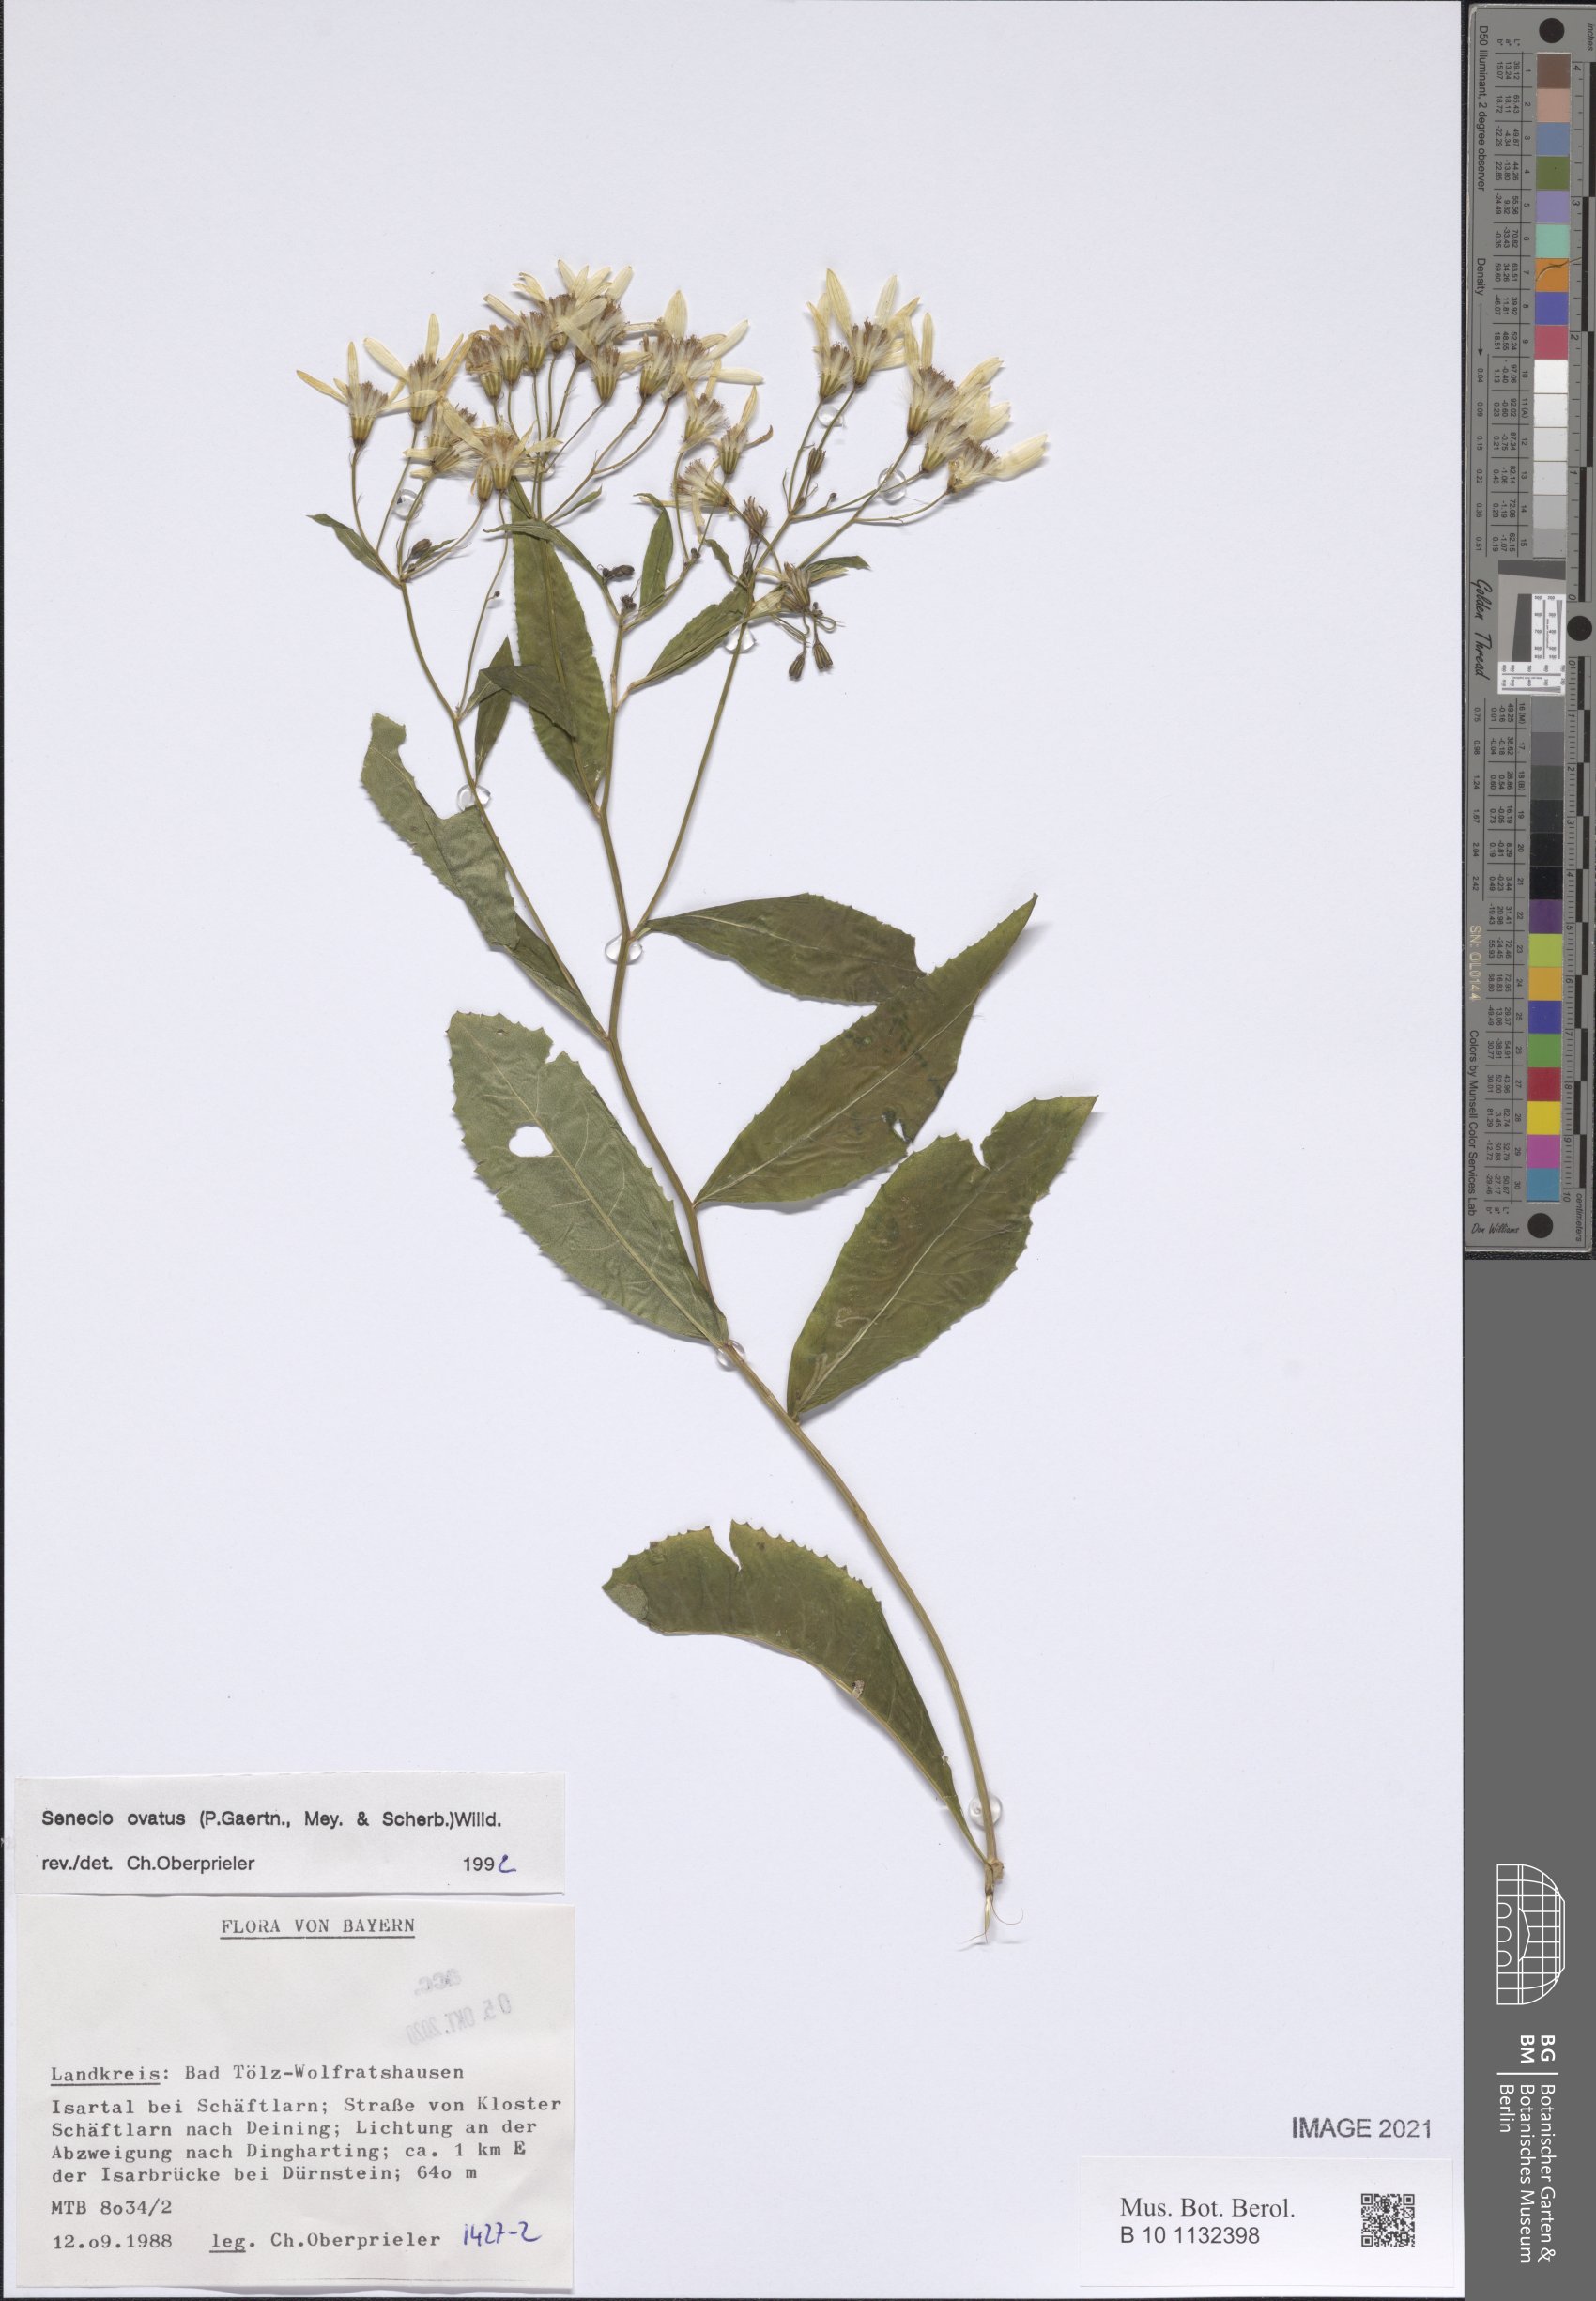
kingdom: Plantae
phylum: Tracheophyta
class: Magnoliopsida
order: Asterales
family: Asteraceae
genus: Senecio
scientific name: Senecio ovatus
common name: Wood ragwort
